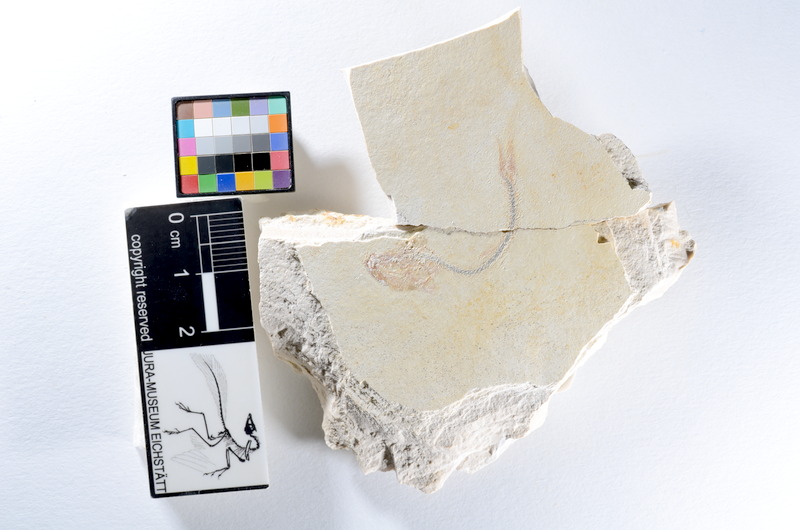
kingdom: Animalia
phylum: Chordata
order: Salmoniformes
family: Orthogonikleithridae
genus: Orthogonikleithrus
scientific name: Orthogonikleithrus hoelli
